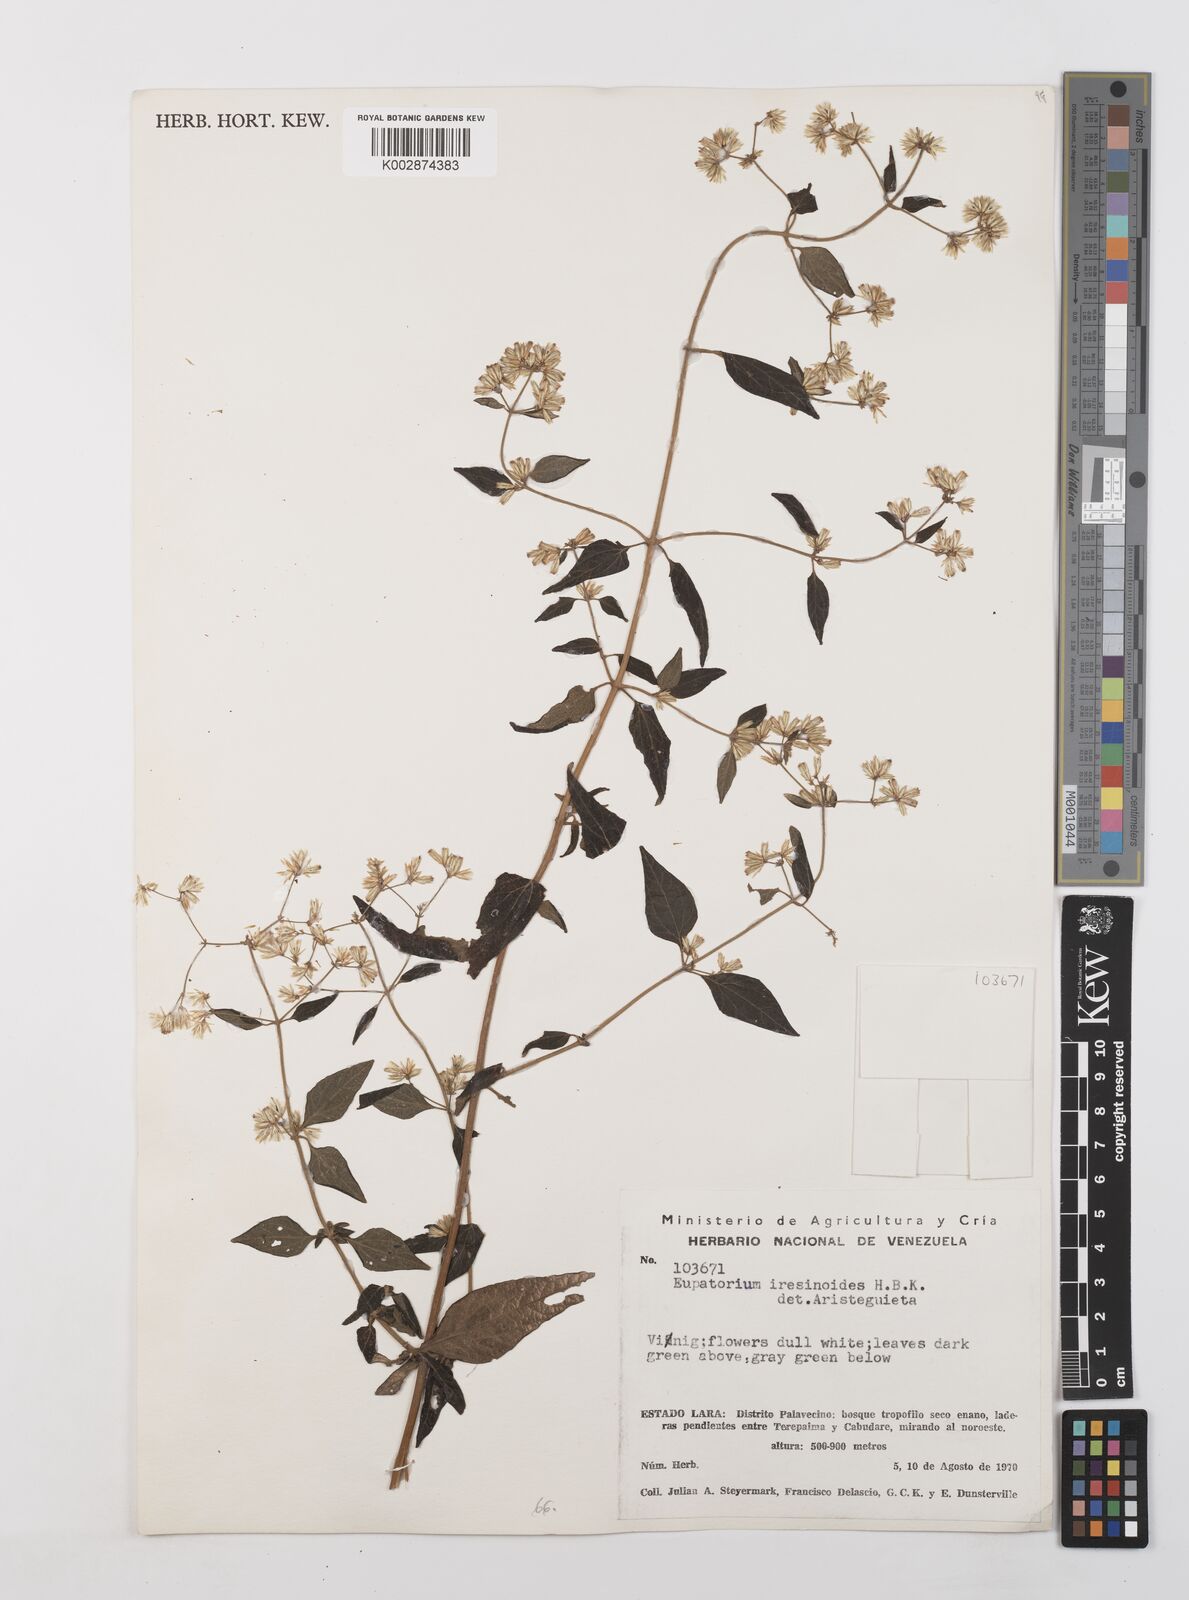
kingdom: Plantae
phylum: Tracheophyta
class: Magnoliopsida
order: Asterales
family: Asteraceae
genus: Condylidium
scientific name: Condylidium iresinoides
